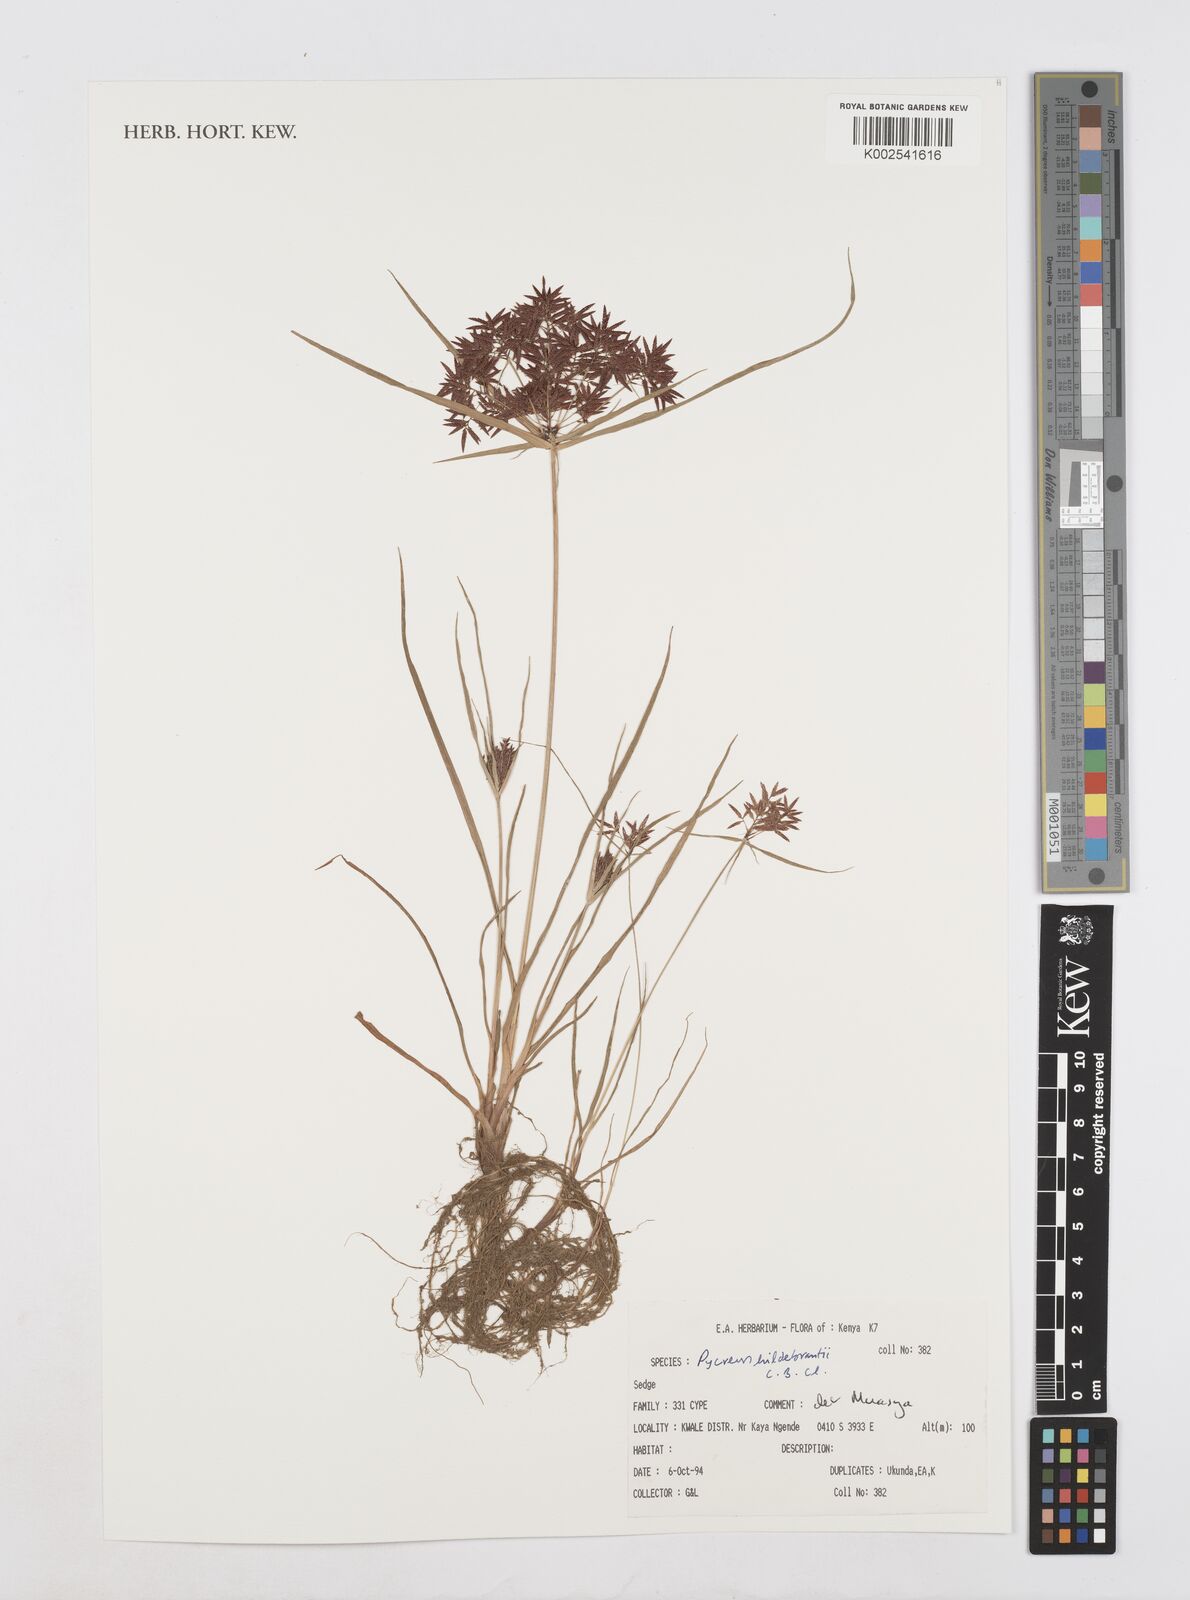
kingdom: Plantae
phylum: Tracheophyta
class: Liliopsida
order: Poales
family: Cyperaceae
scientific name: Cyperaceae
